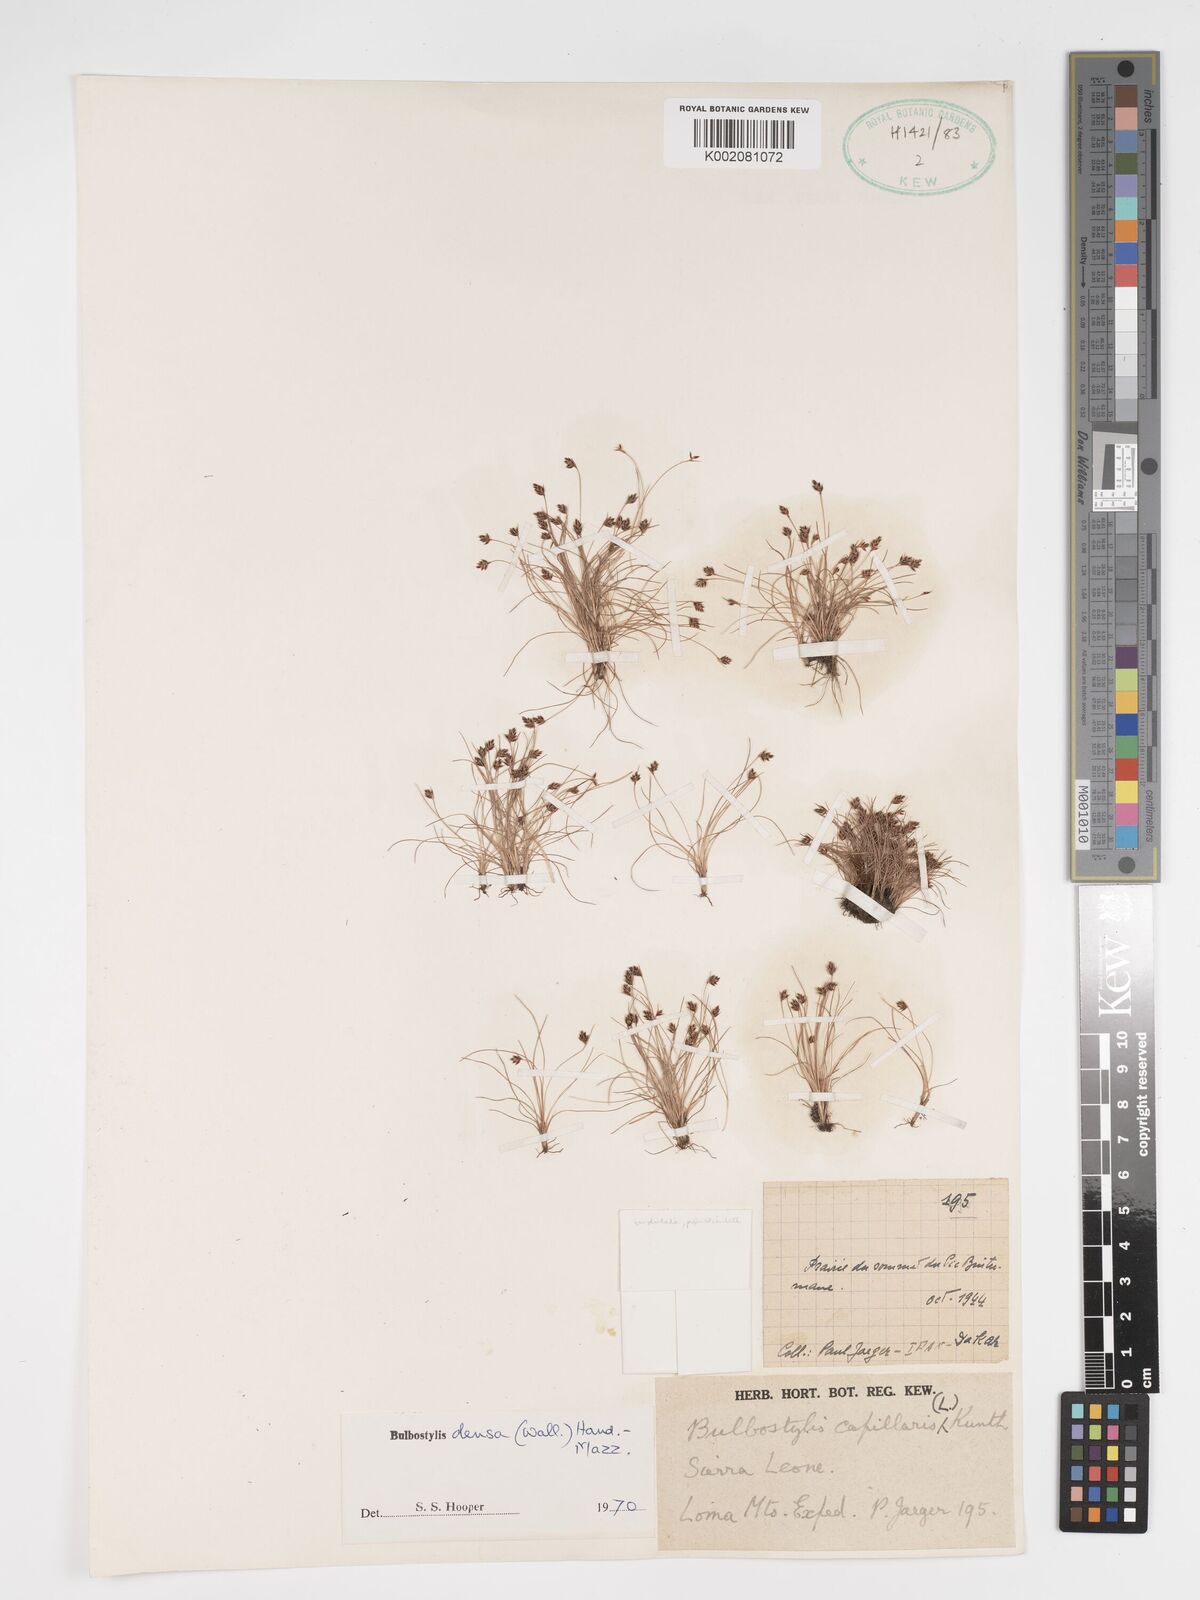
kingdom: Plantae
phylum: Tracheophyta
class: Liliopsida
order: Poales
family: Cyperaceae
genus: Bulbostylis
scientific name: Bulbostylis densa
